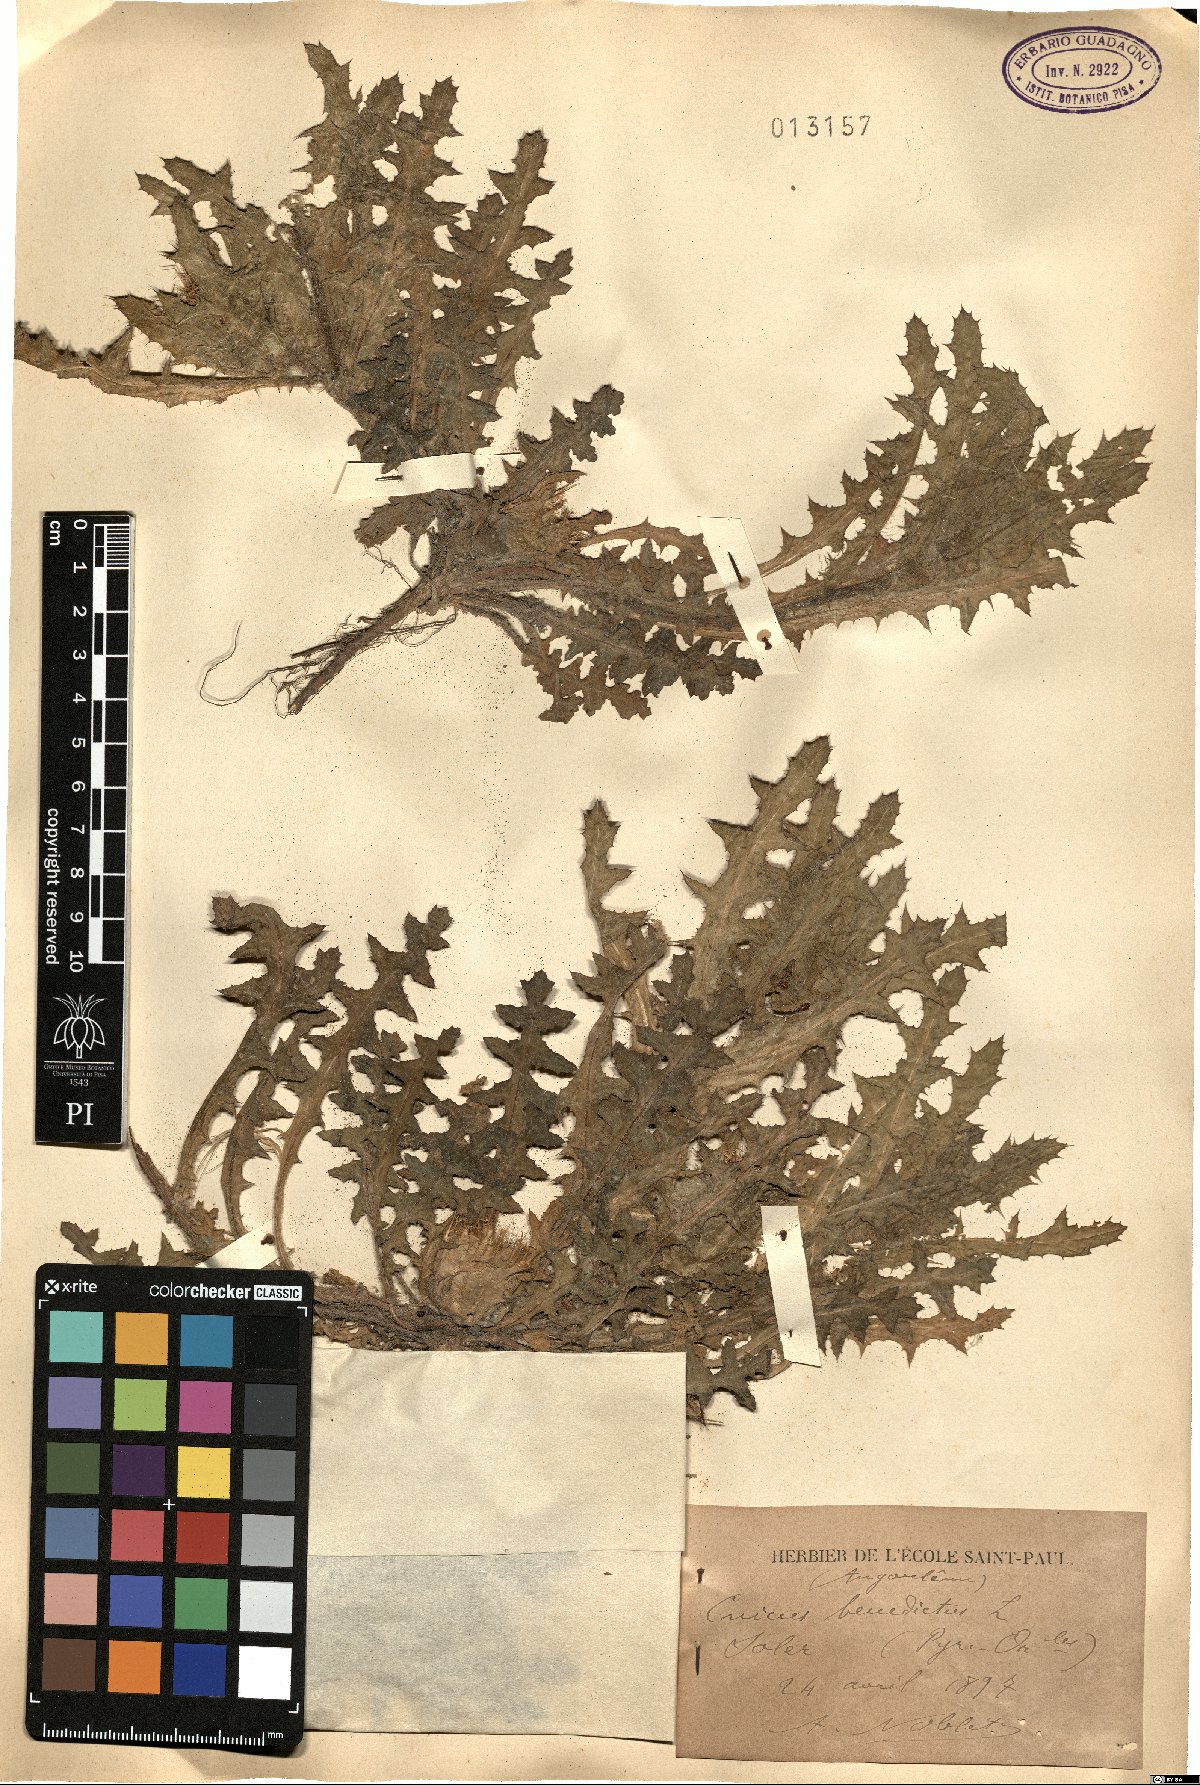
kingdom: Plantae
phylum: Tracheophyta
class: Magnoliopsida
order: Asterales
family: Asteraceae
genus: Centaurea
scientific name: Centaurea benedicta
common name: Blessed thistle
